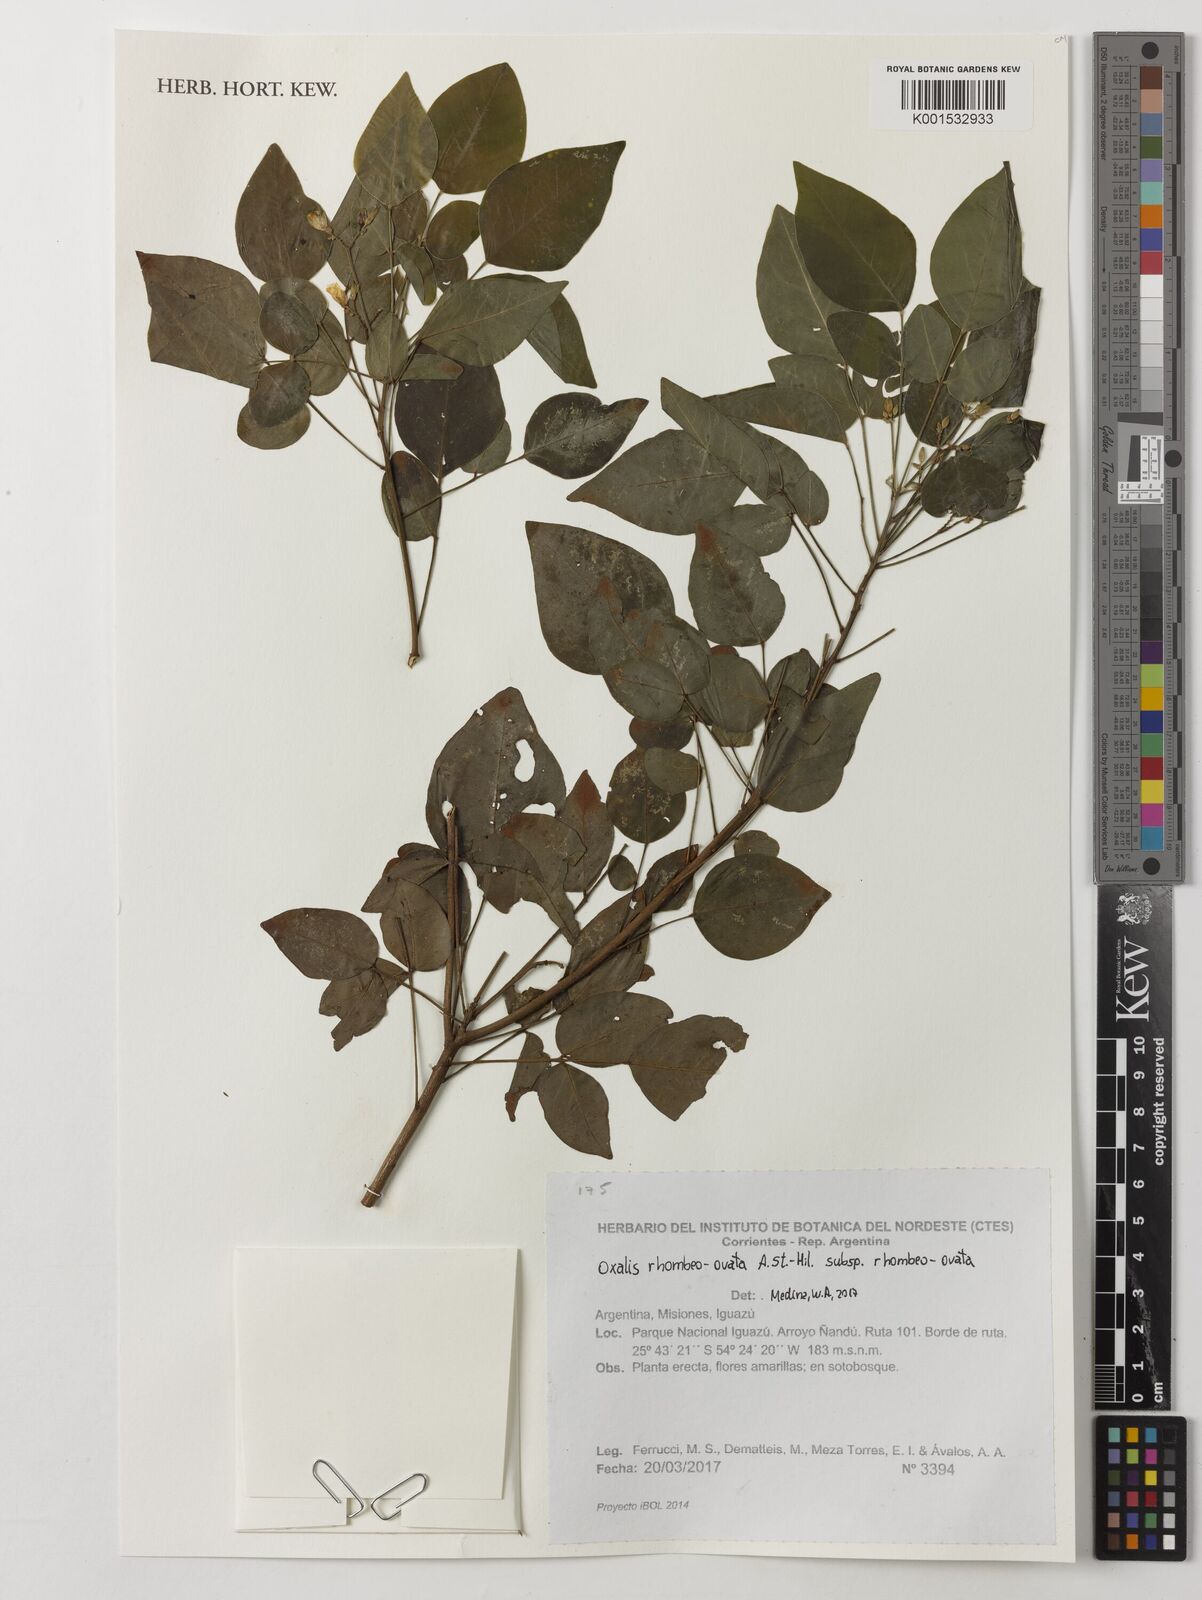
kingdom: Plantae
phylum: Tracheophyta
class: Magnoliopsida
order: Oxalidales
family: Oxalidaceae
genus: Oxalis
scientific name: Oxalis rhombeo-ovata
